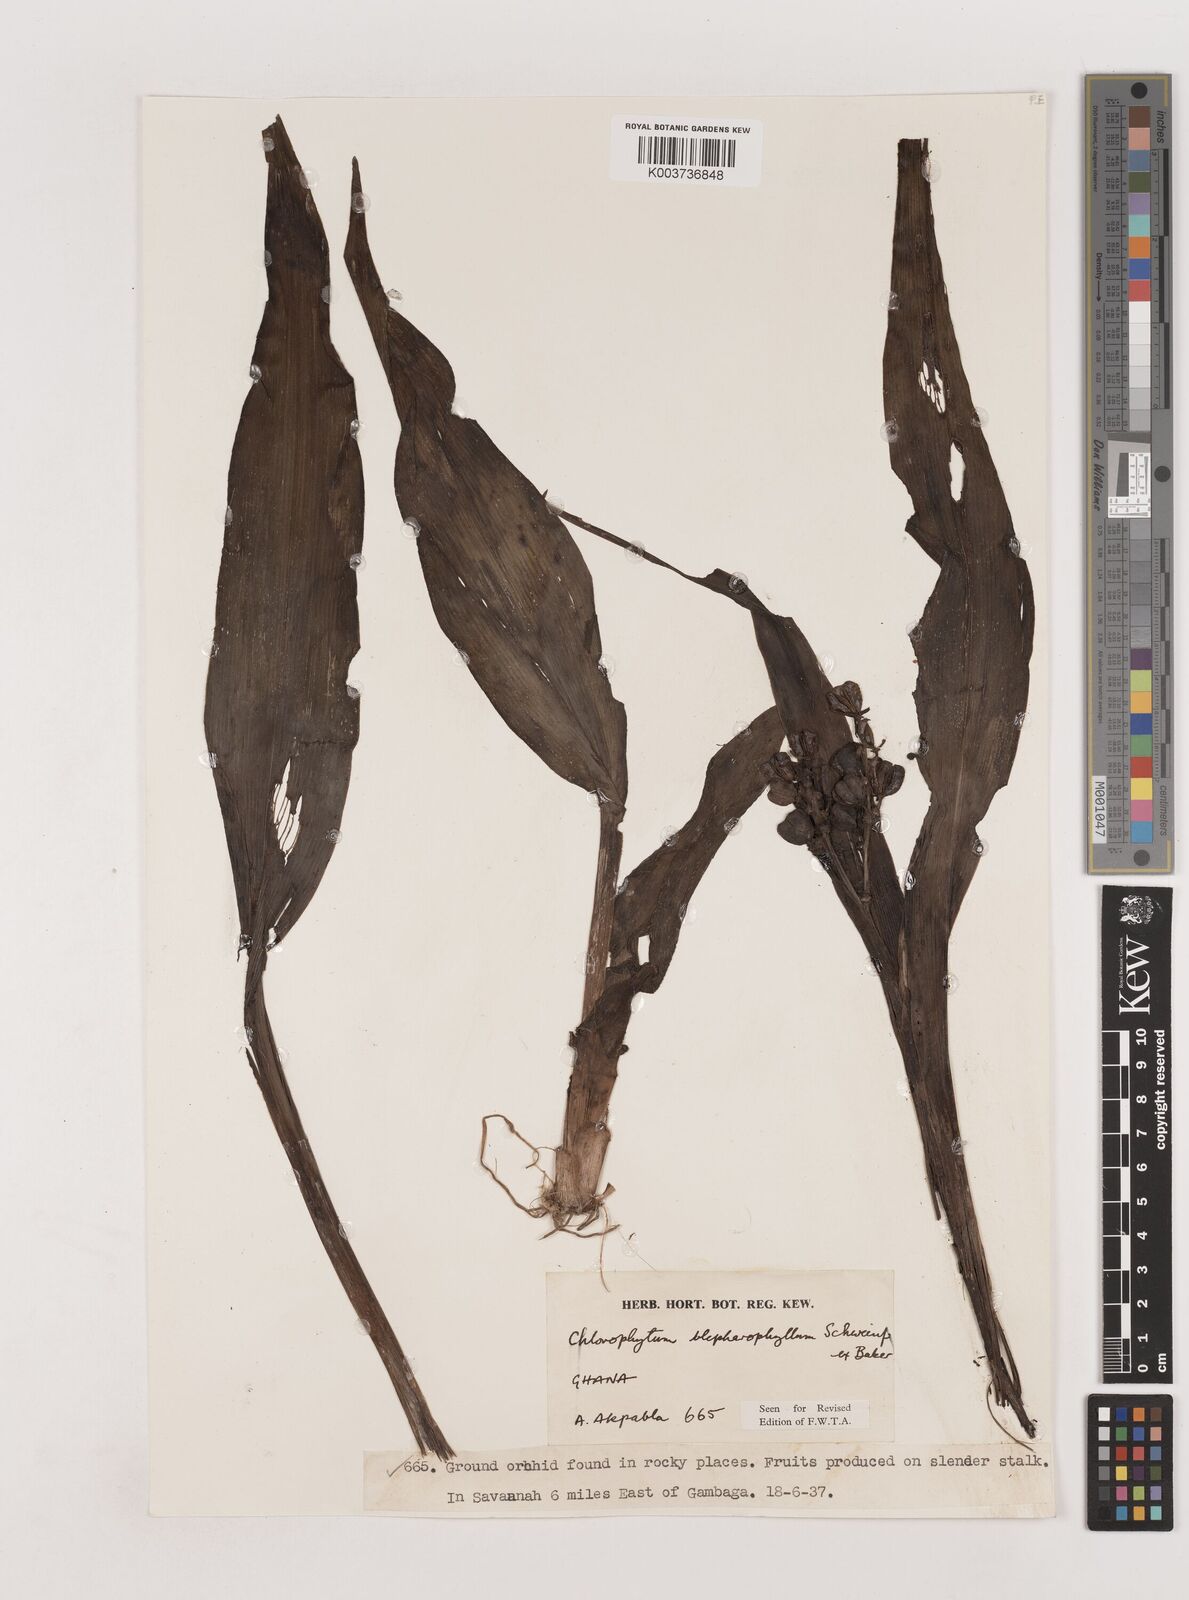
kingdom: Plantae
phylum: Tracheophyta
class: Liliopsida
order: Asparagales
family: Asparagaceae
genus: Chlorophytum
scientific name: Chlorophytum blepharophyllum
